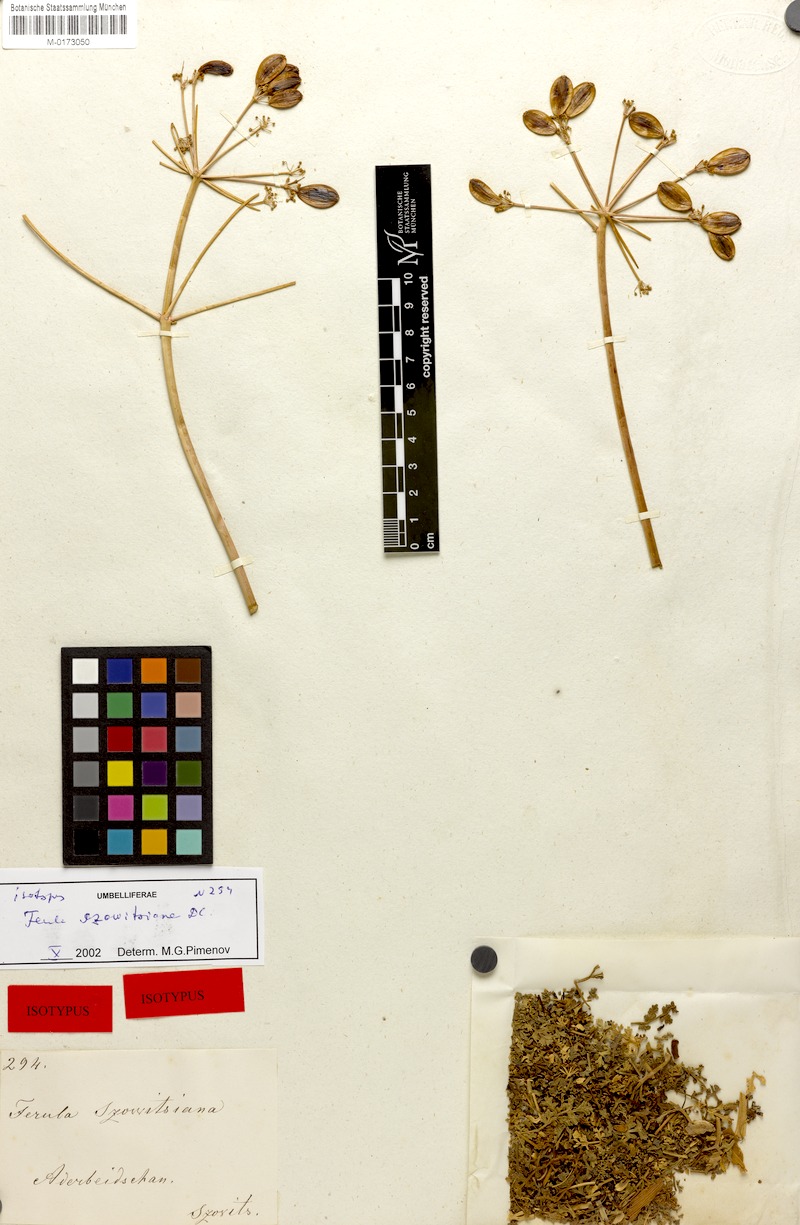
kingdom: Plantae
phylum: Tracheophyta
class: Magnoliopsida
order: Apiales
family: Apiaceae
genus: Ferula
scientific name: Ferula szowitsiana
